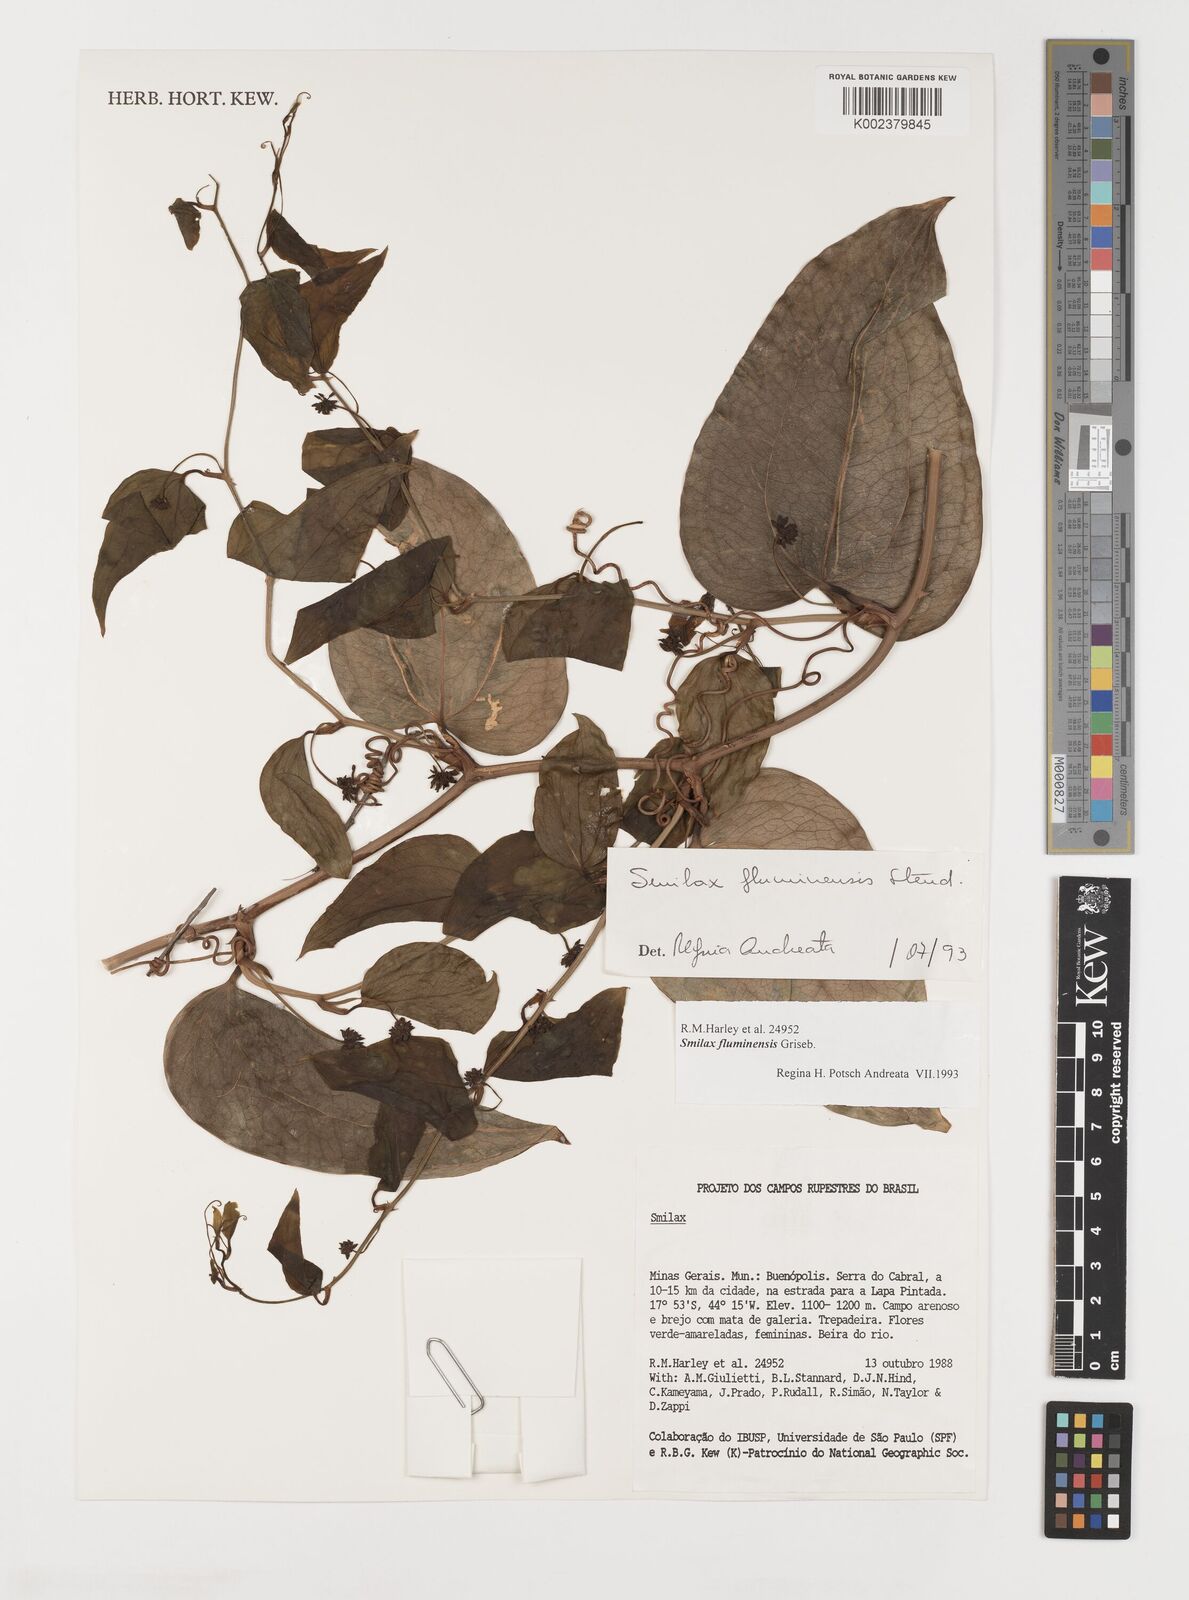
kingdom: Plantae
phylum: Tracheophyta
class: Liliopsida
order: Liliales
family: Smilacaceae
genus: Smilax
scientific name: Smilax fluminensis
